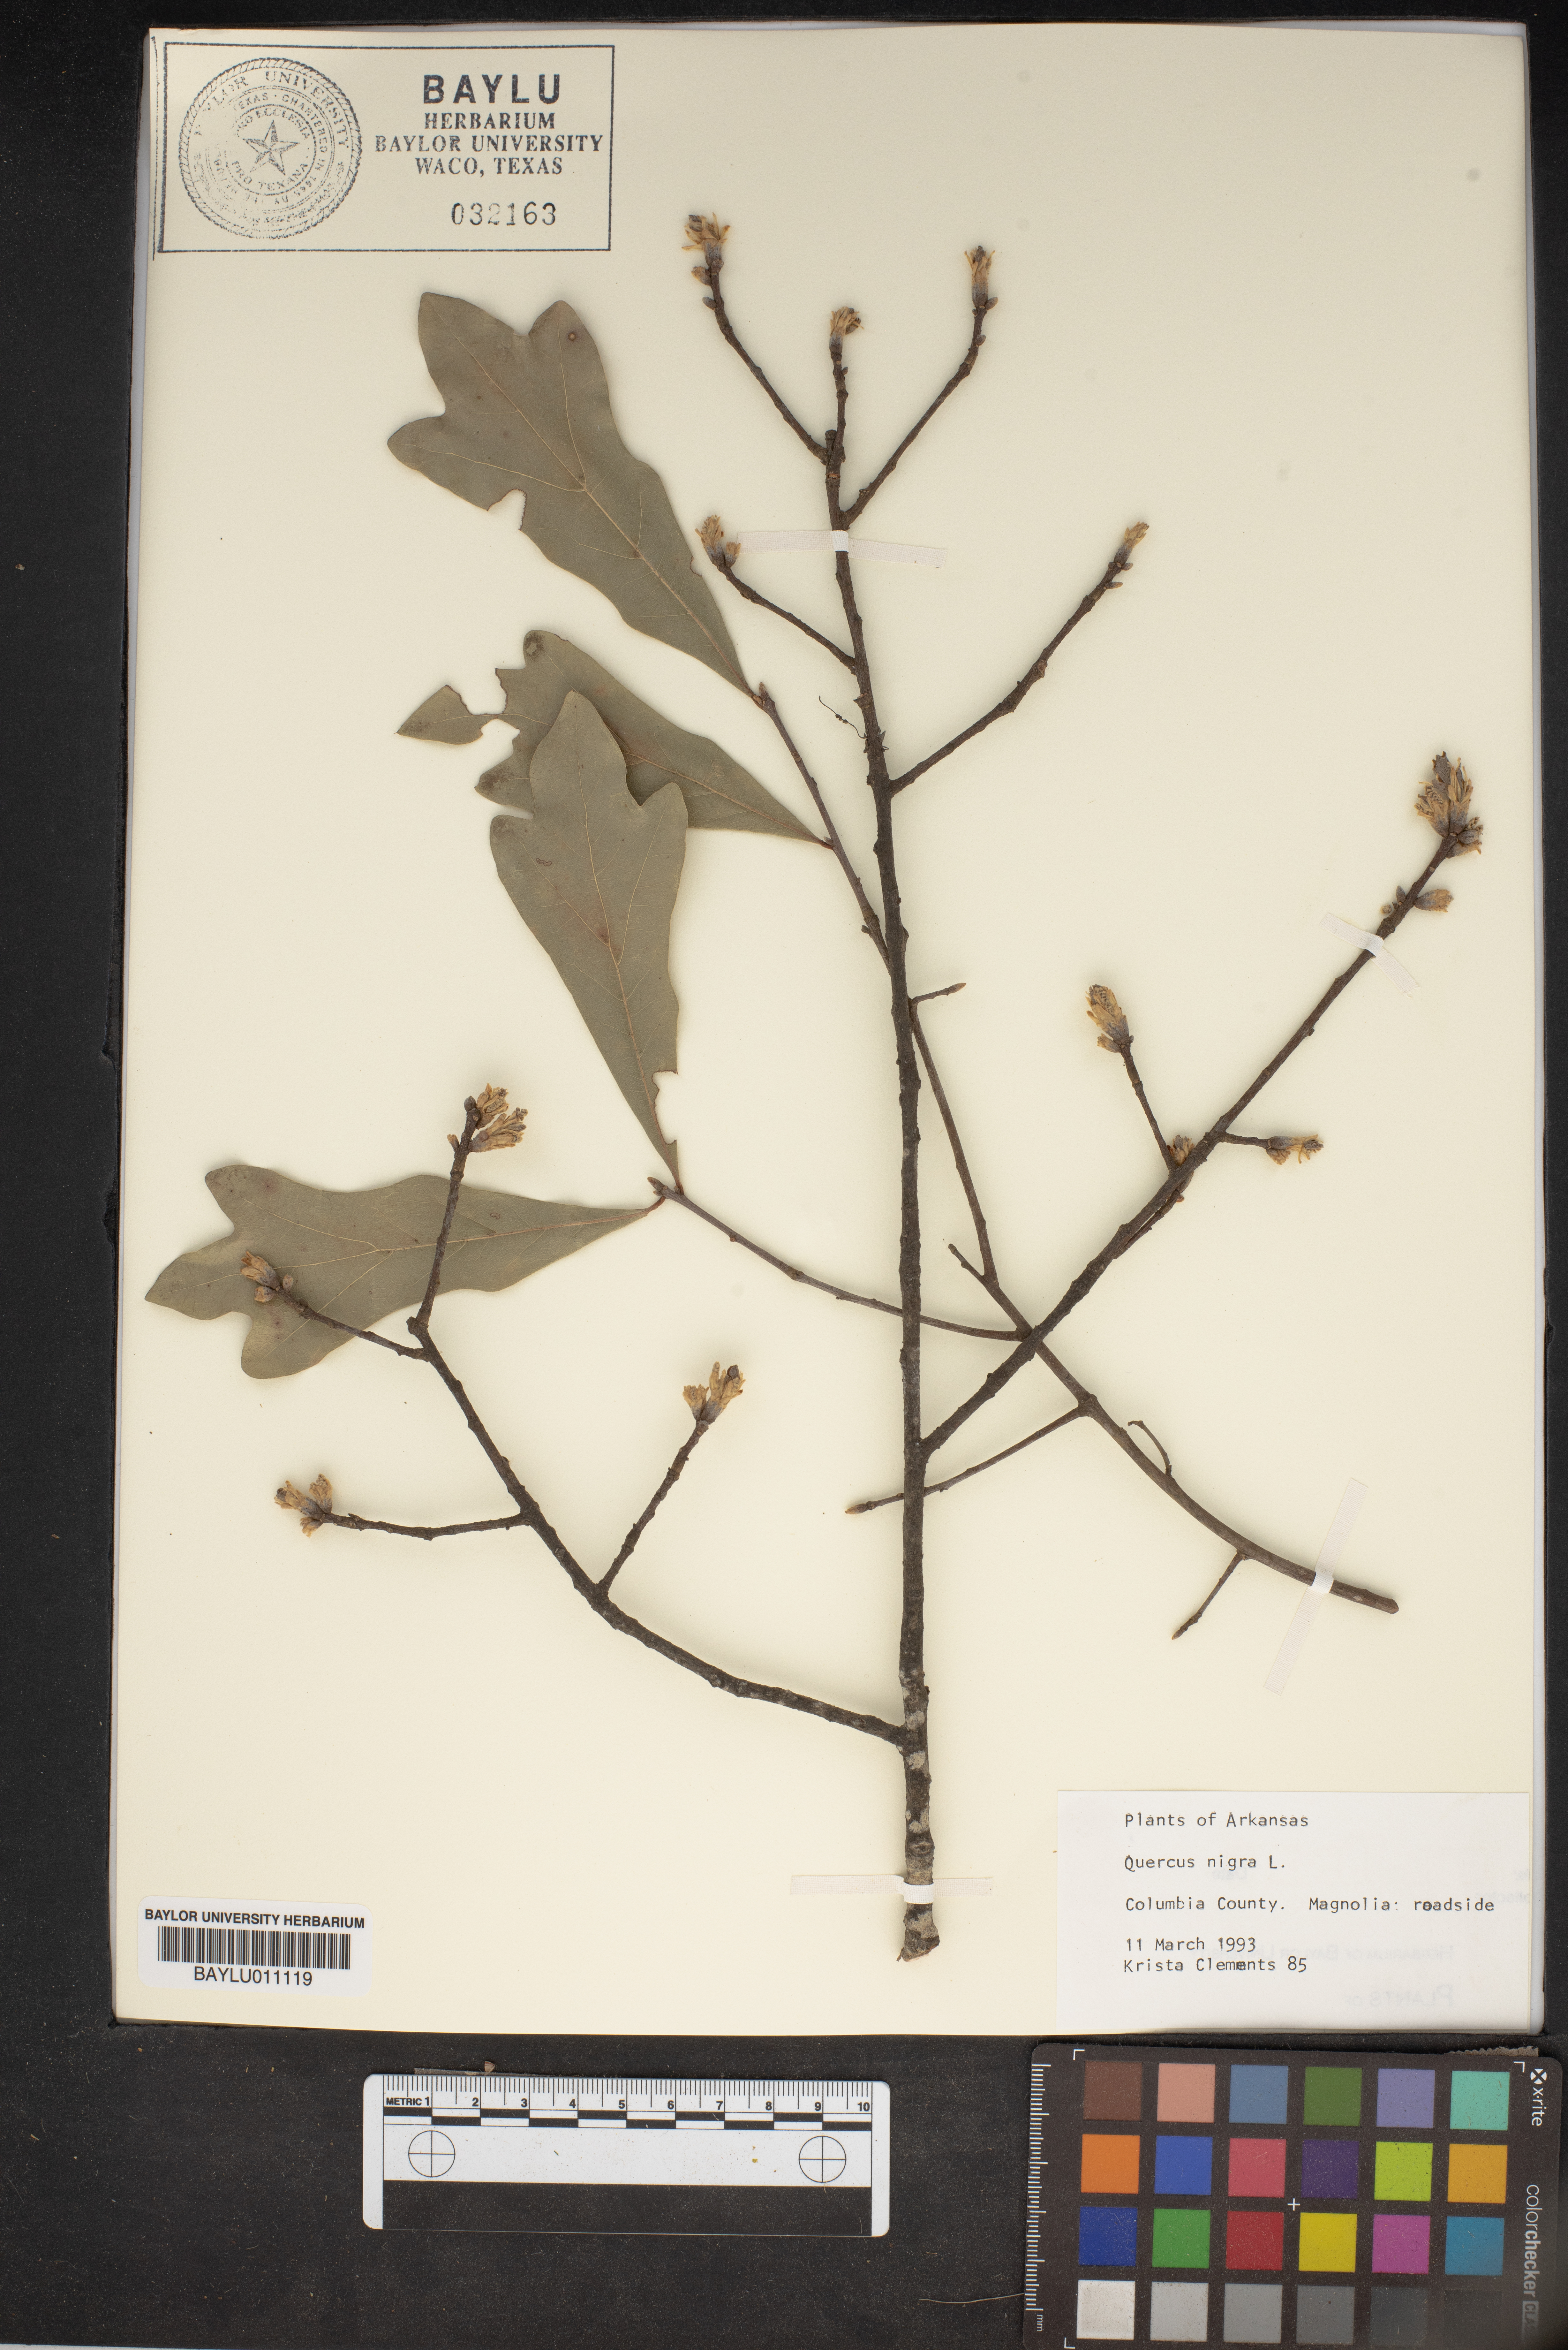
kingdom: Plantae
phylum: Tracheophyta
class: Magnoliopsida
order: Fagales
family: Fagaceae
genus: Quercus
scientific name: Quercus nigra
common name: Water oak
